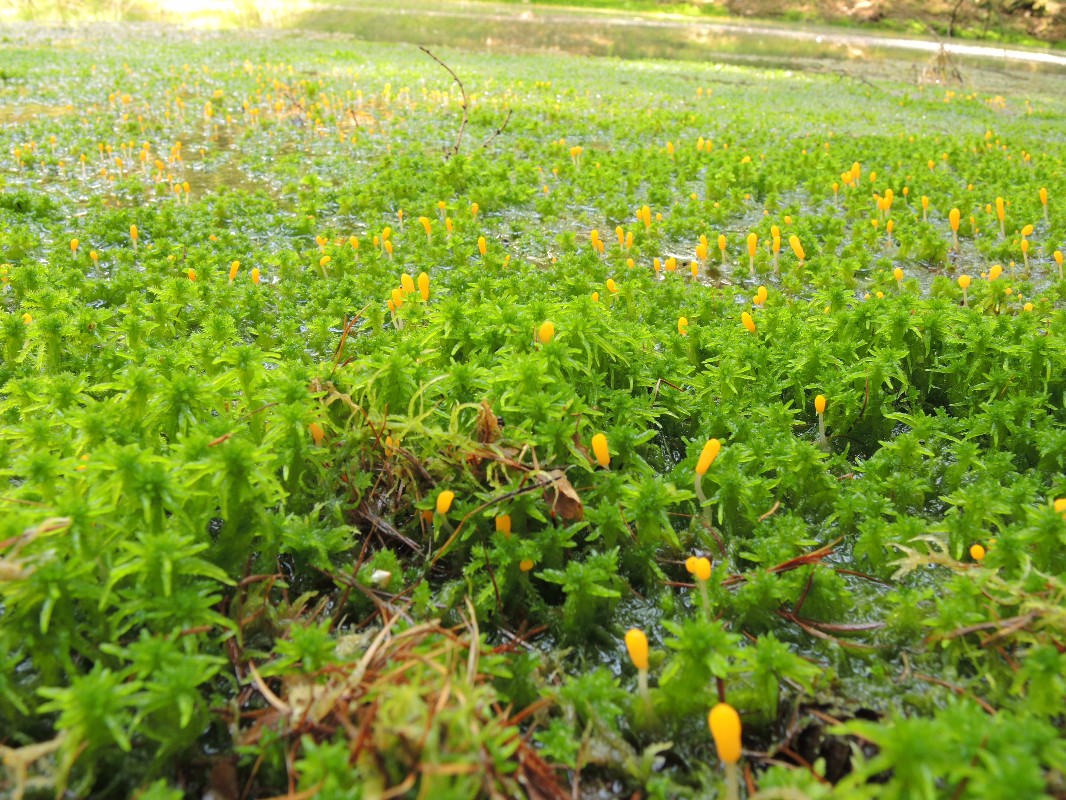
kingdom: Fungi
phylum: Ascomycota
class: Leotiomycetes
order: Helotiales
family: Cenangiaceae
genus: Mitrula
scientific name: Mitrula paludosa
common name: gul nøkketunge
